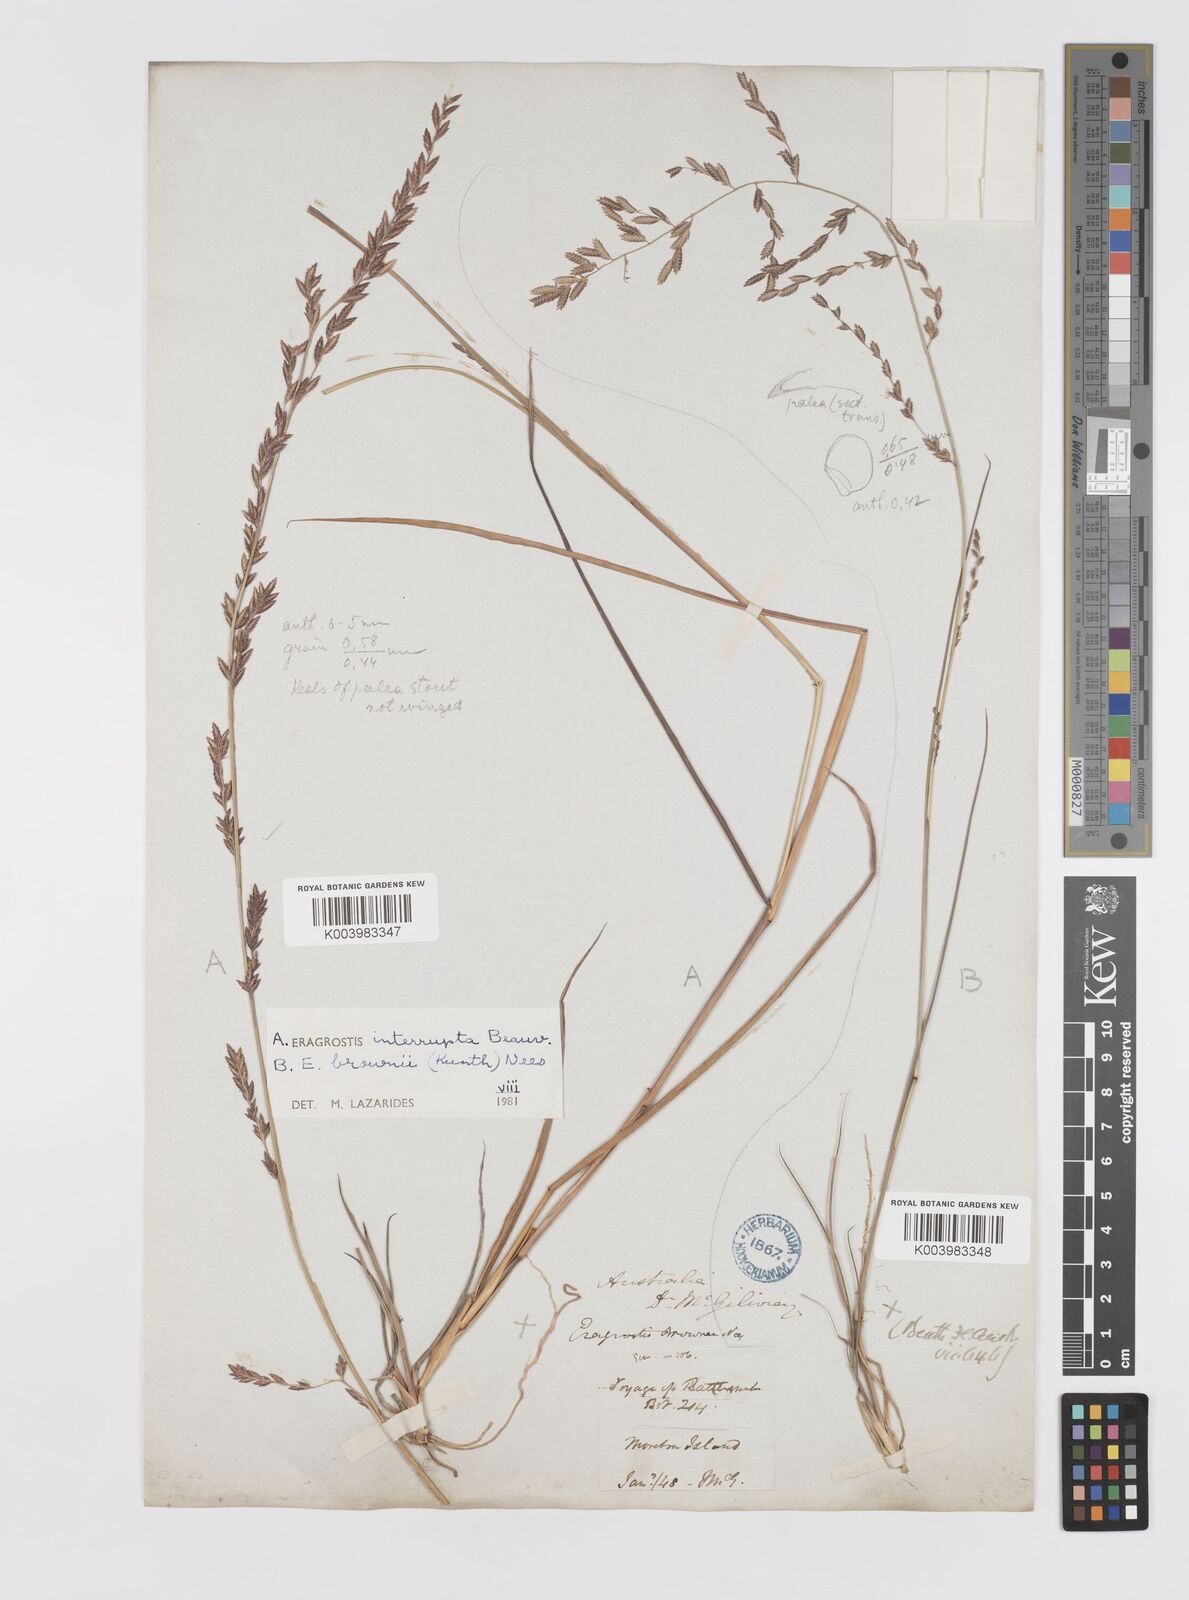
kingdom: Plantae
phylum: Tracheophyta
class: Liliopsida
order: Poales
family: Poaceae
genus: Eragrostis
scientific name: Eragrostis interrupta
